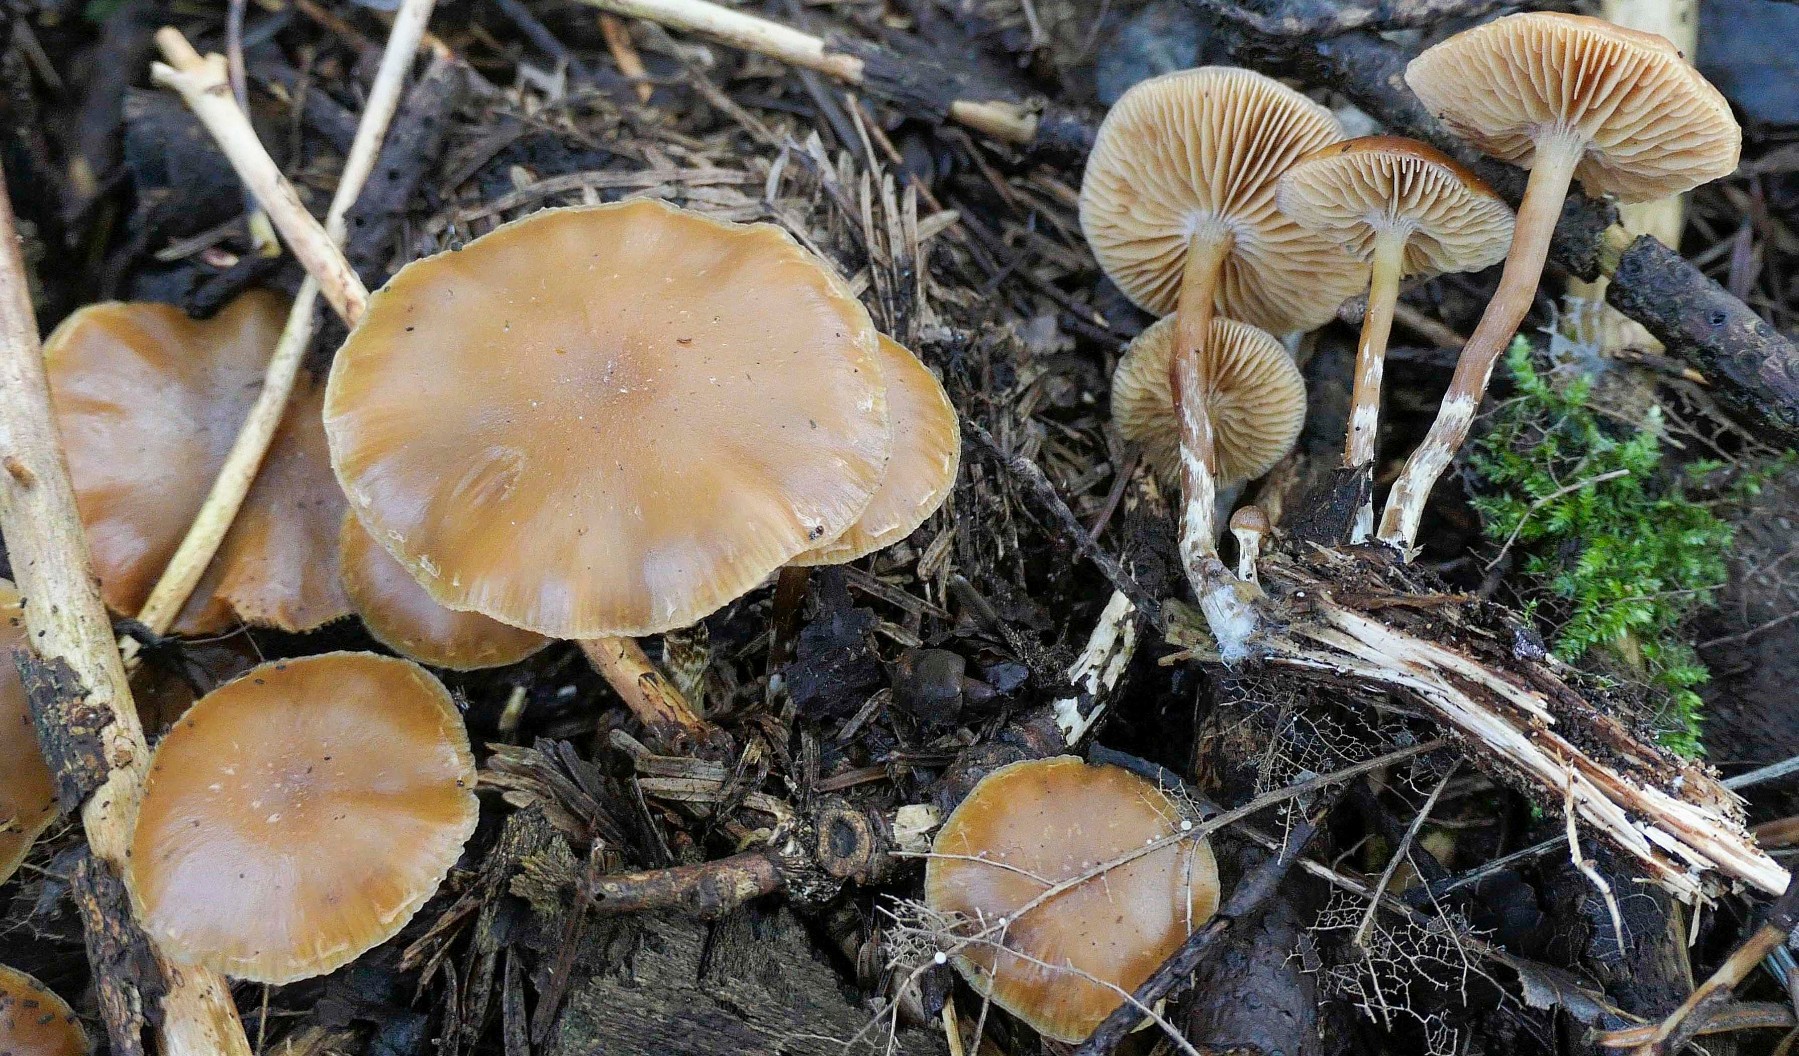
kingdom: Fungi
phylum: Basidiomycota
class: Agaricomycetes
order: Agaricales
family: Hymenogastraceae
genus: Galerina
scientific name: Galerina sideroides
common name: træflis-hjelmhat
